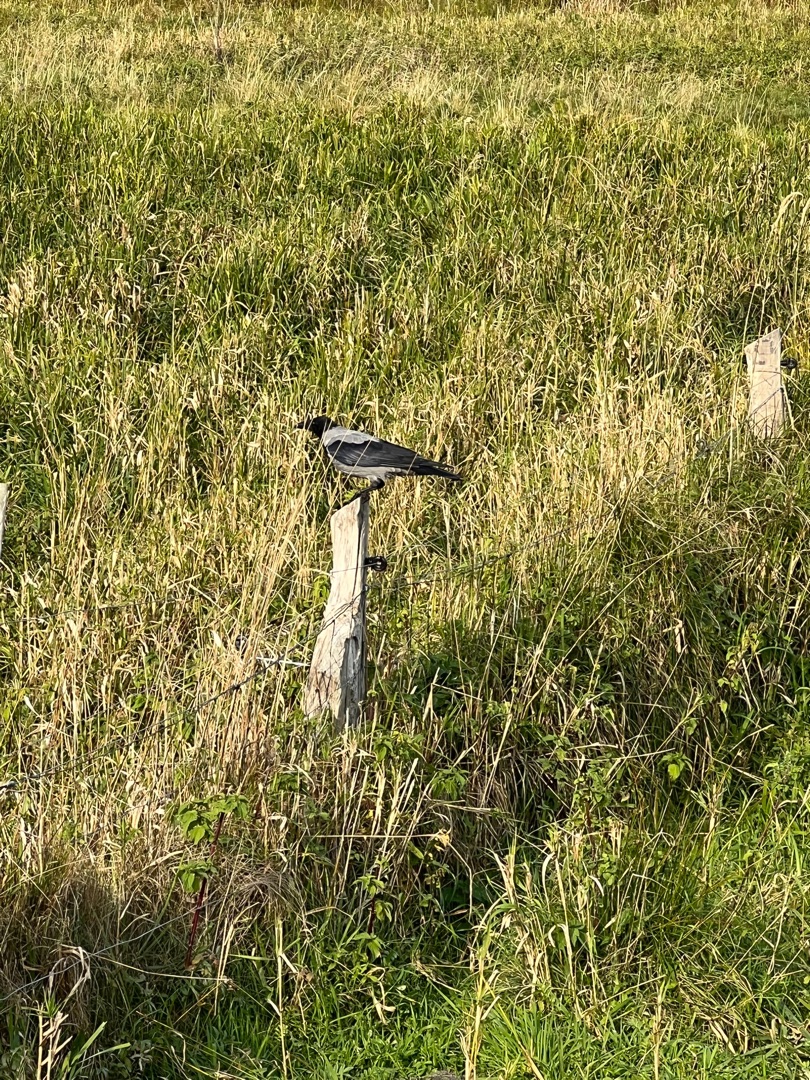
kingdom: Animalia
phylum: Chordata
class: Aves
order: Passeriformes
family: Corvidae
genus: Corvus
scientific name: Corvus cornix
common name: Gråkrage
